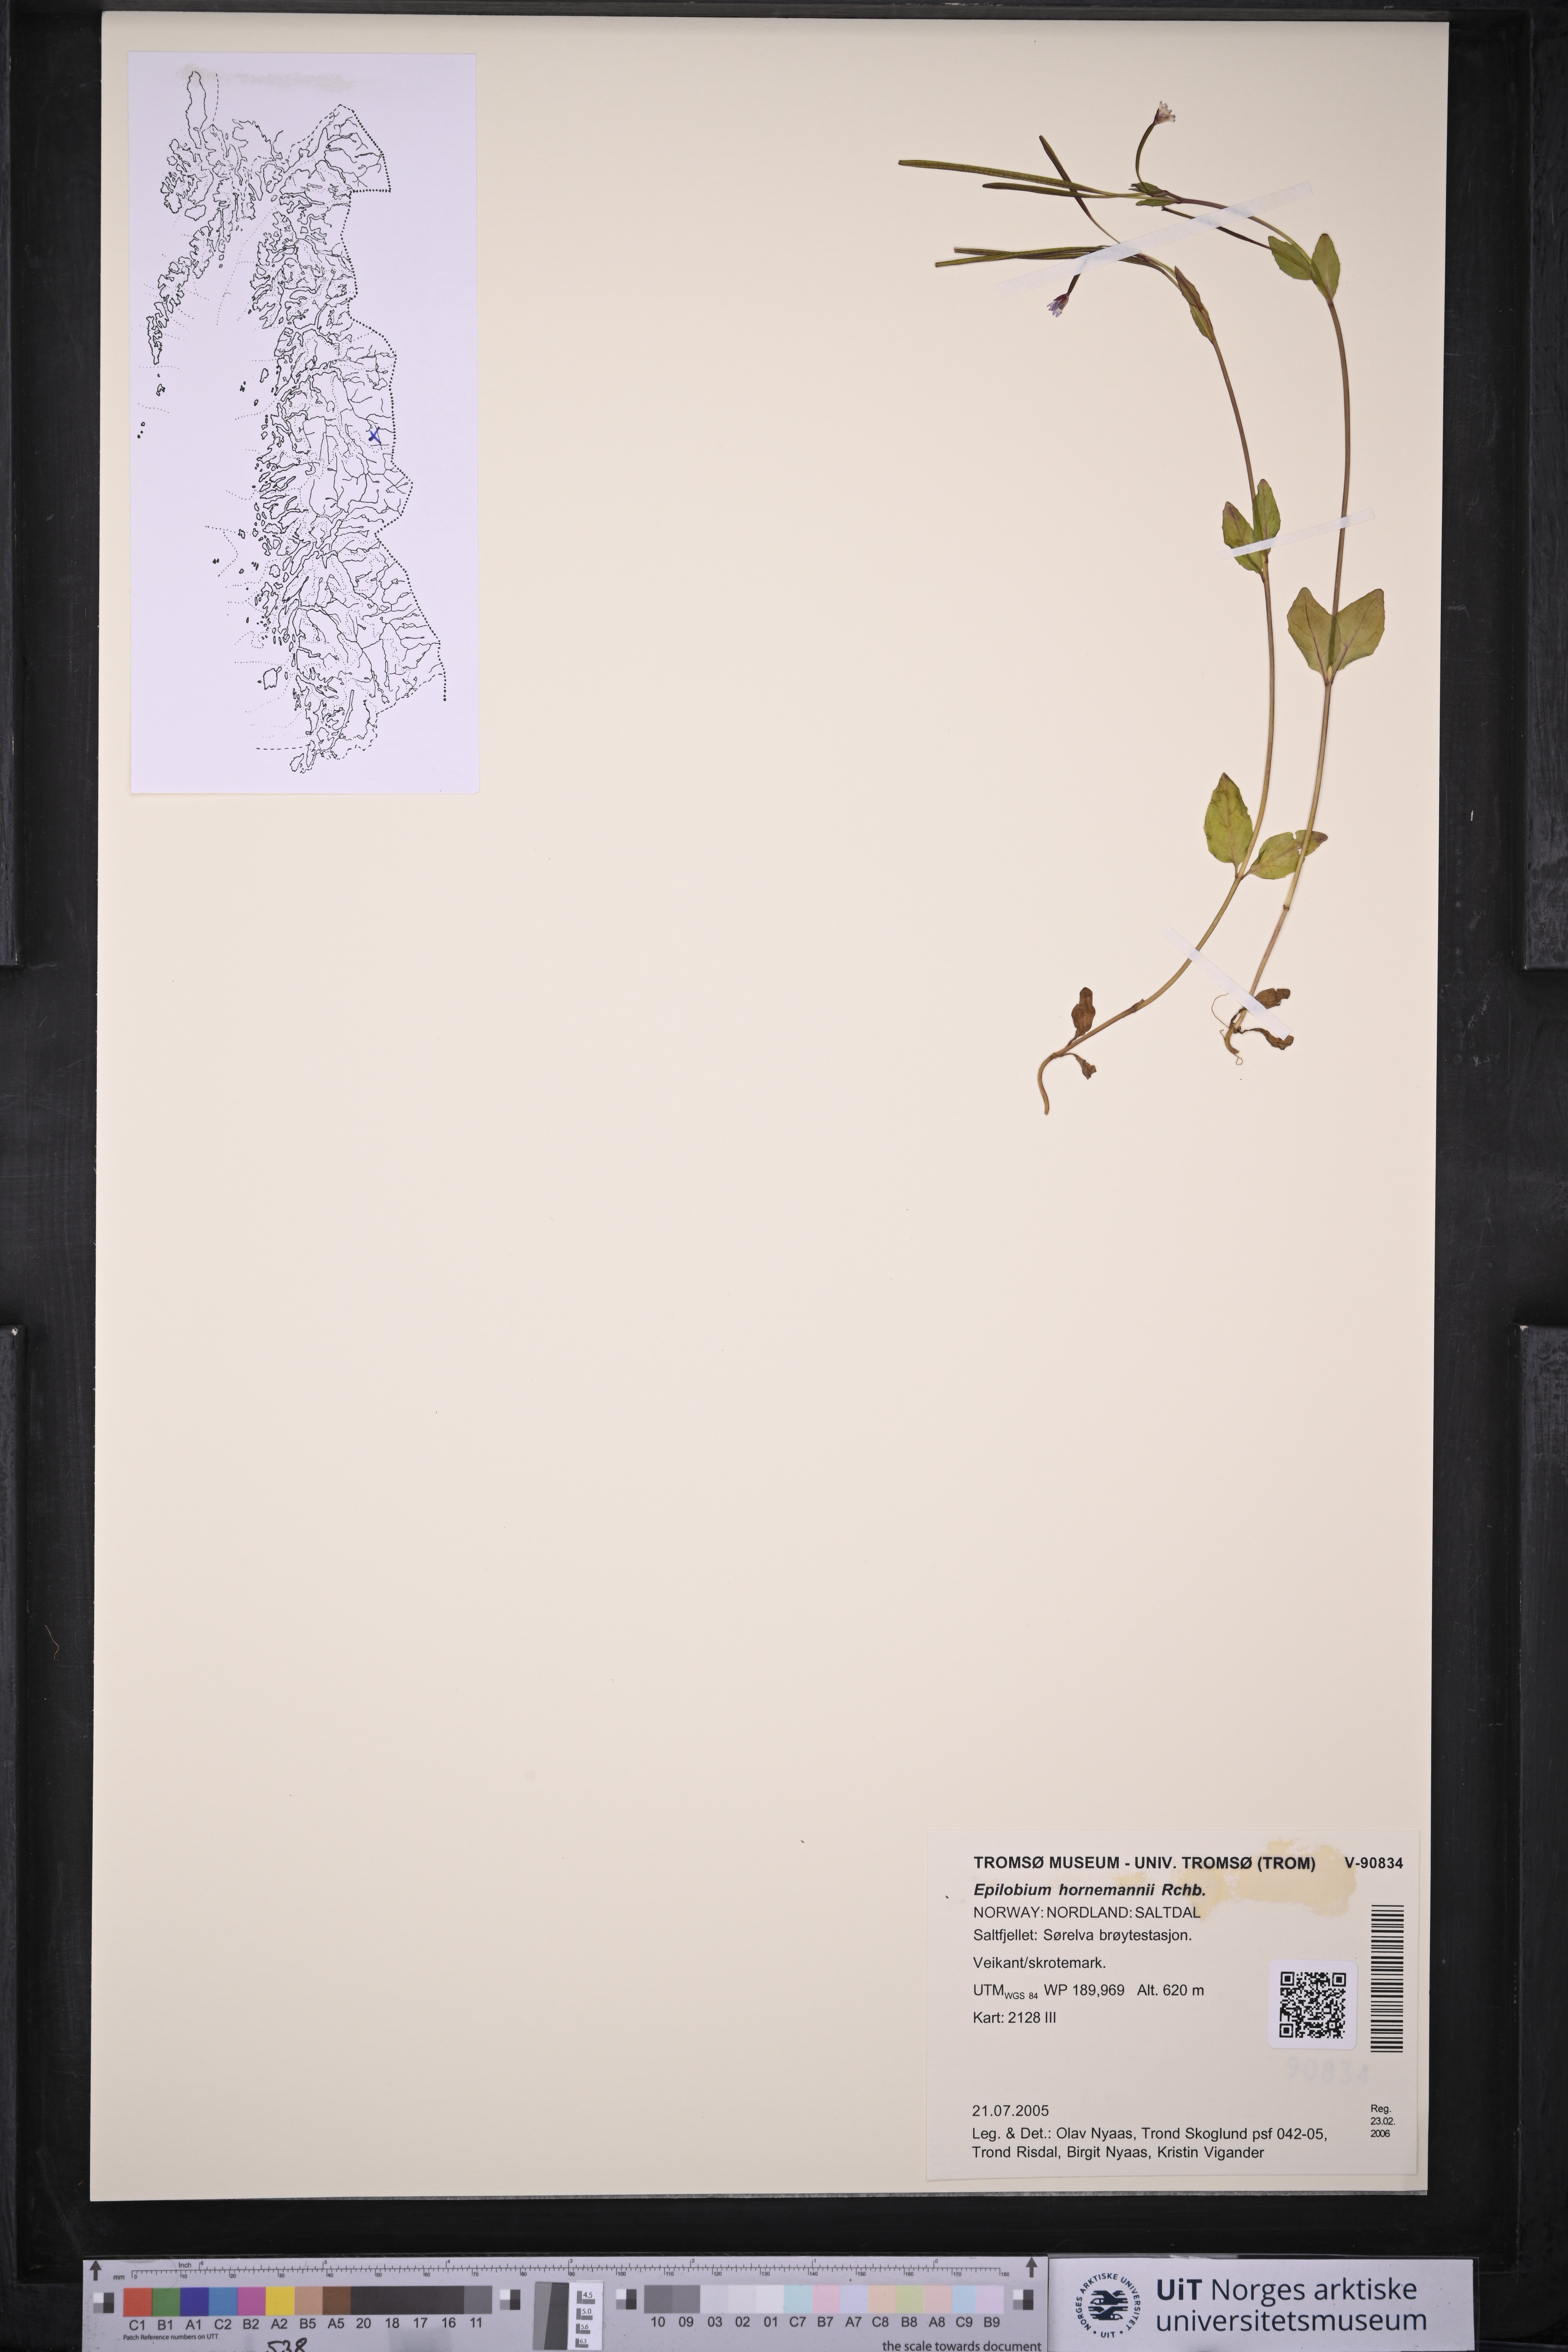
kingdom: Plantae
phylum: Tracheophyta
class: Magnoliopsida
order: Myrtales
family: Onagraceae
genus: Epilobium
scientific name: Epilobium hornemannii
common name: Hornemann's willowherb
